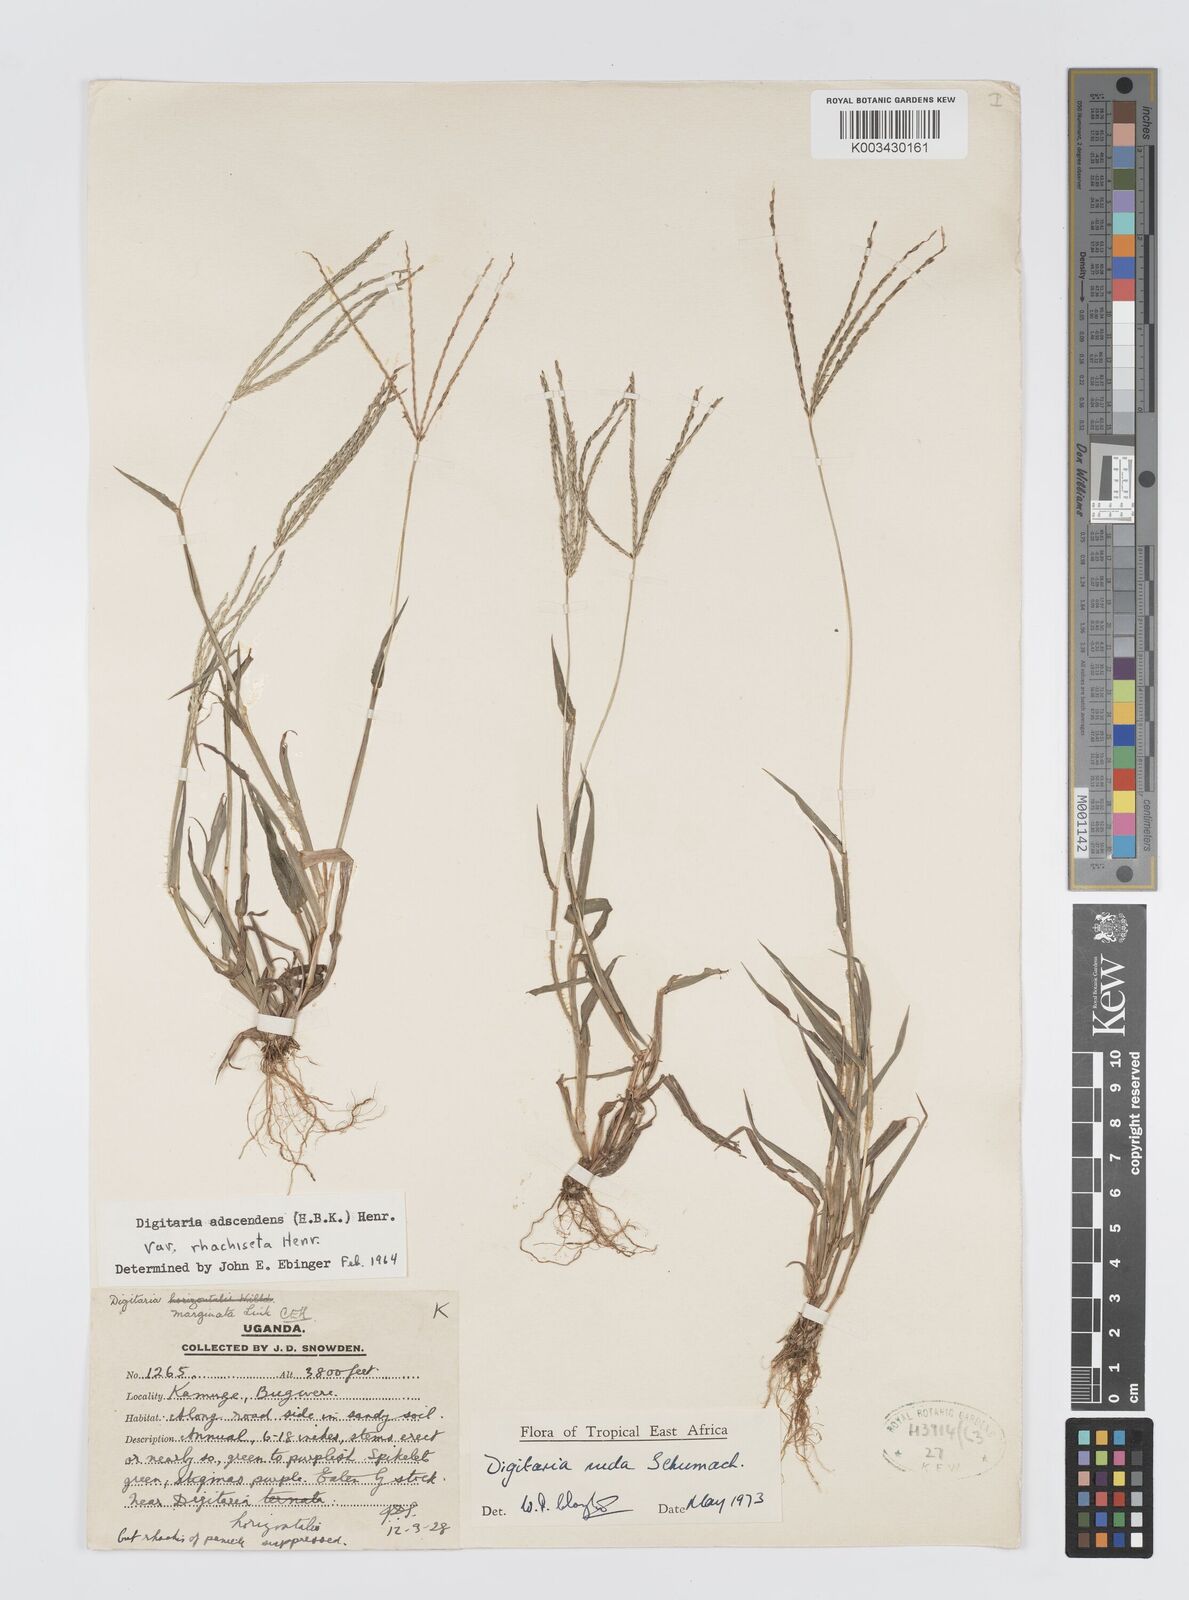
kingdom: Plantae
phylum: Tracheophyta
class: Liliopsida
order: Poales
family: Poaceae
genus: Digitaria
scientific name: Digitaria nuda
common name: Naked crabgrass
